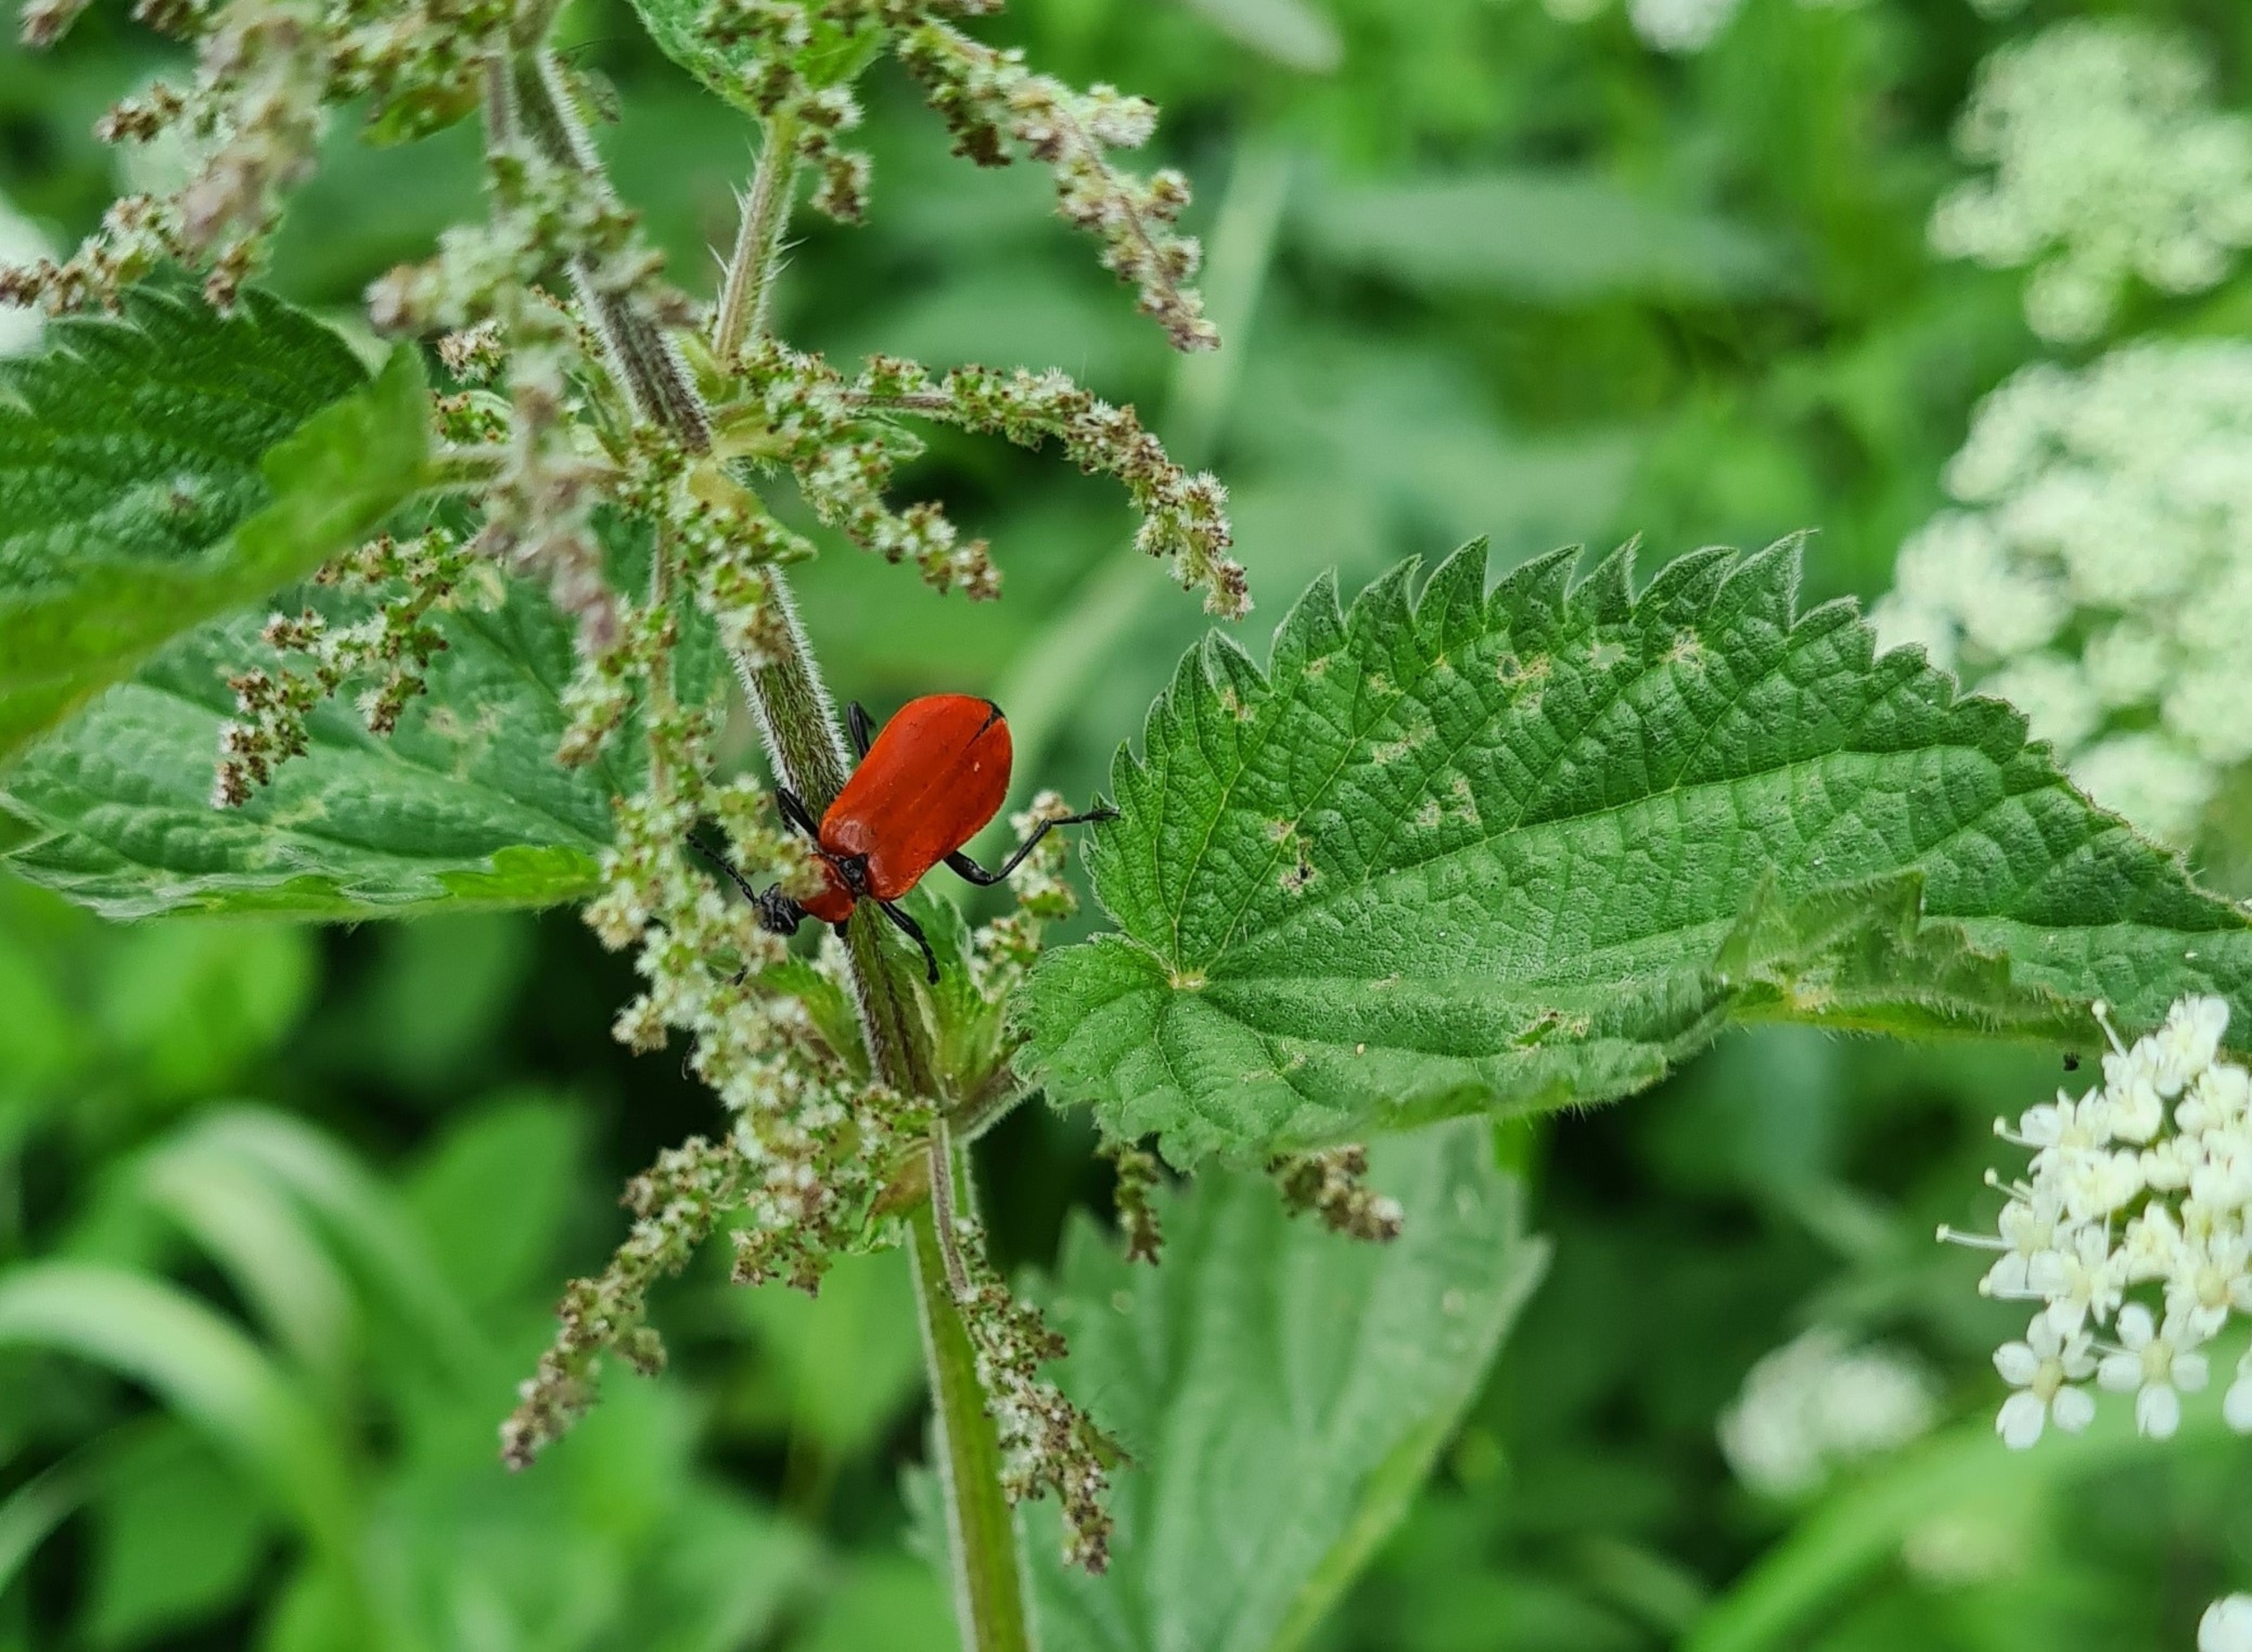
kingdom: Animalia
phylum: Arthropoda
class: Insecta
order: Coleoptera
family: Pyrochroidae
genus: Pyrochroa
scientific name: Pyrochroa coccinea
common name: Sorthovedet kardinalbille
